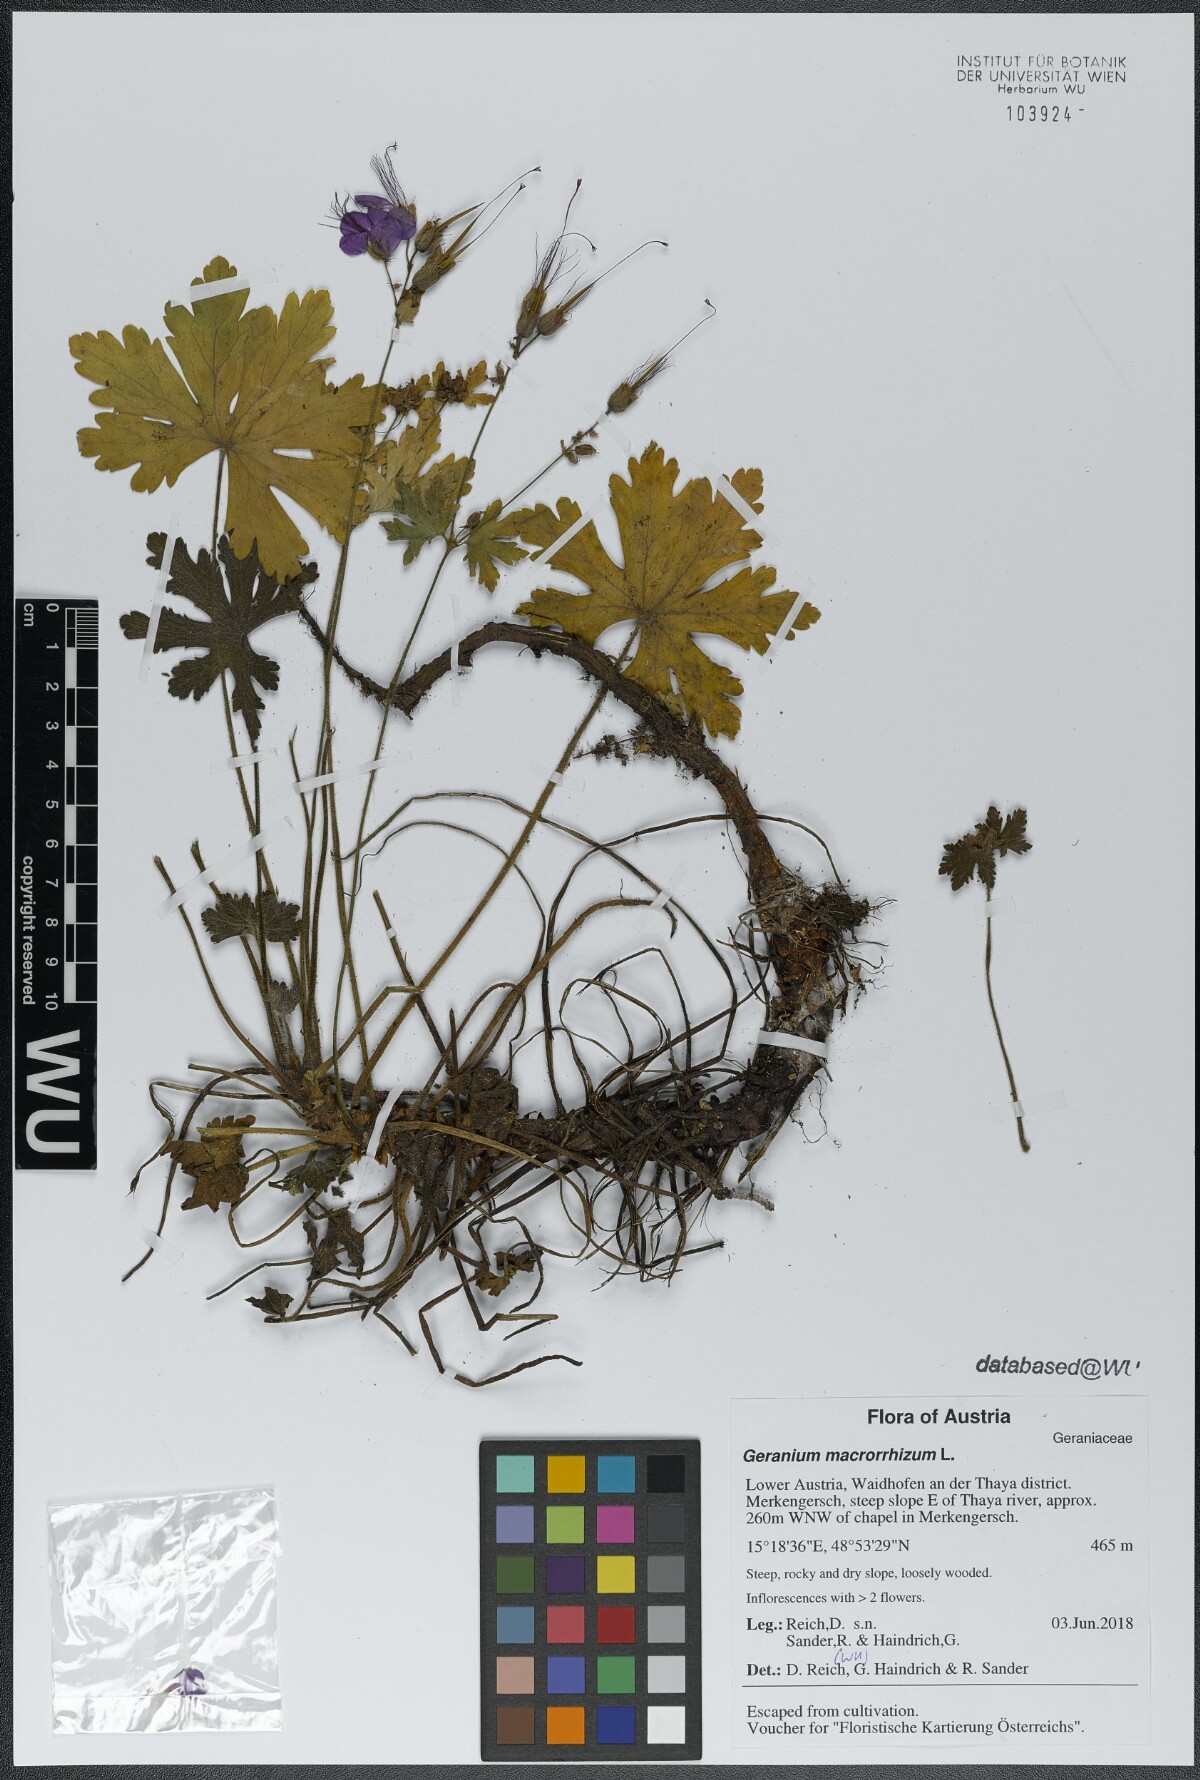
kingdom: Plantae
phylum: Tracheophyta
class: Magnoliopsida
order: Geraniales
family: Geraniaceae
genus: Geranium
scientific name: Geranium macrorrhizum
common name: Rock crane's-bill
